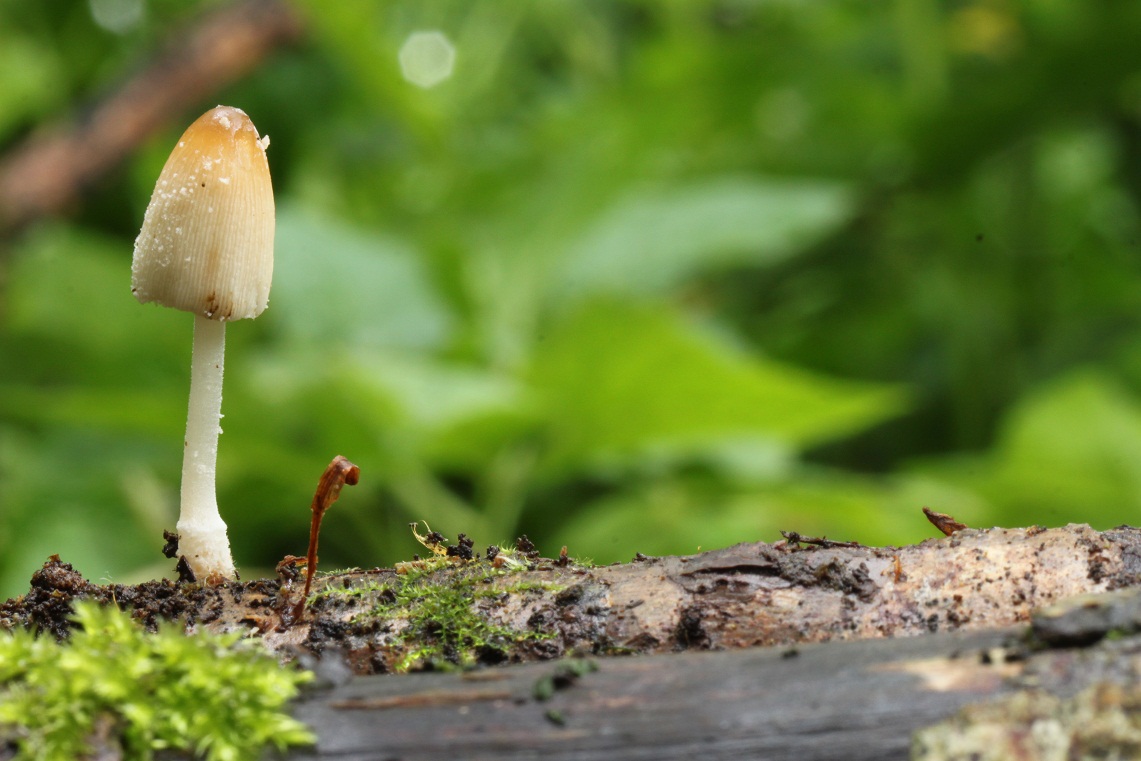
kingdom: Fungi
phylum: Basidiomycota
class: Agaricomycetes
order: Agaricales
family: Psathyrellaceae
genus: Coprinellus
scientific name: Coprinellus xanthothrix
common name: gultrådet blækhat
